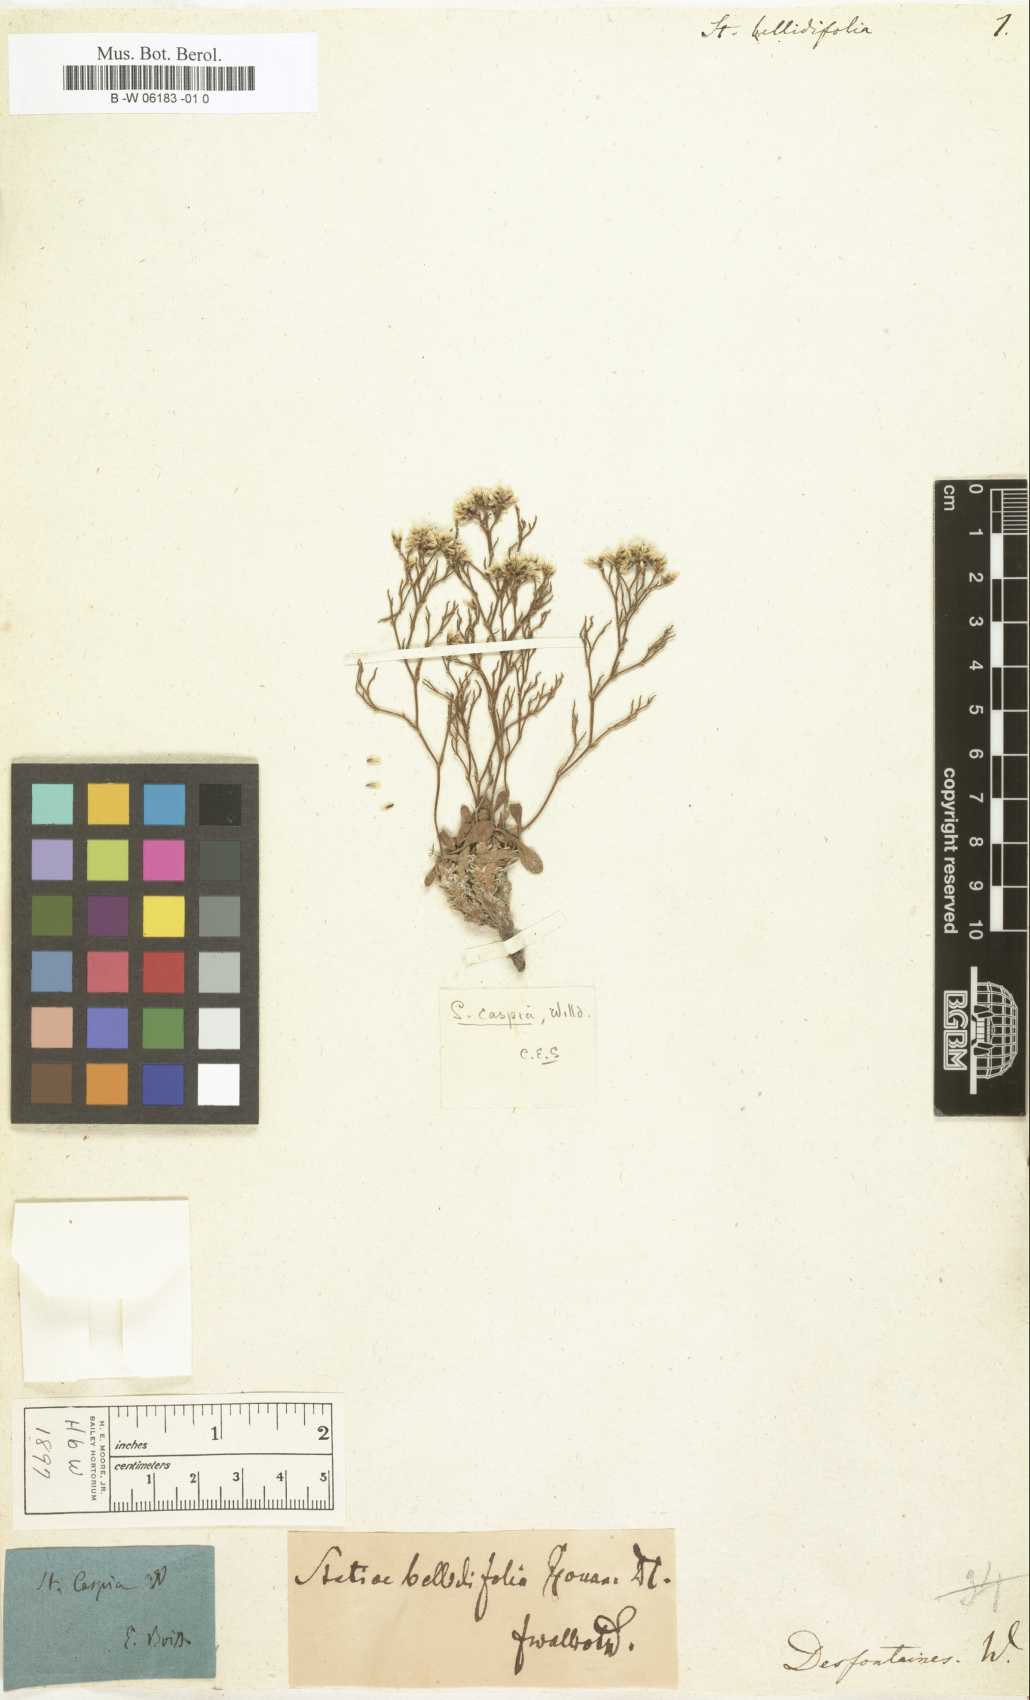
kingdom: Plantae
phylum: Tracheophyta
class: Magnoliopsida
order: Caryophyllales
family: Plumbaginaceae
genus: Limonium
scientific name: Limonium
